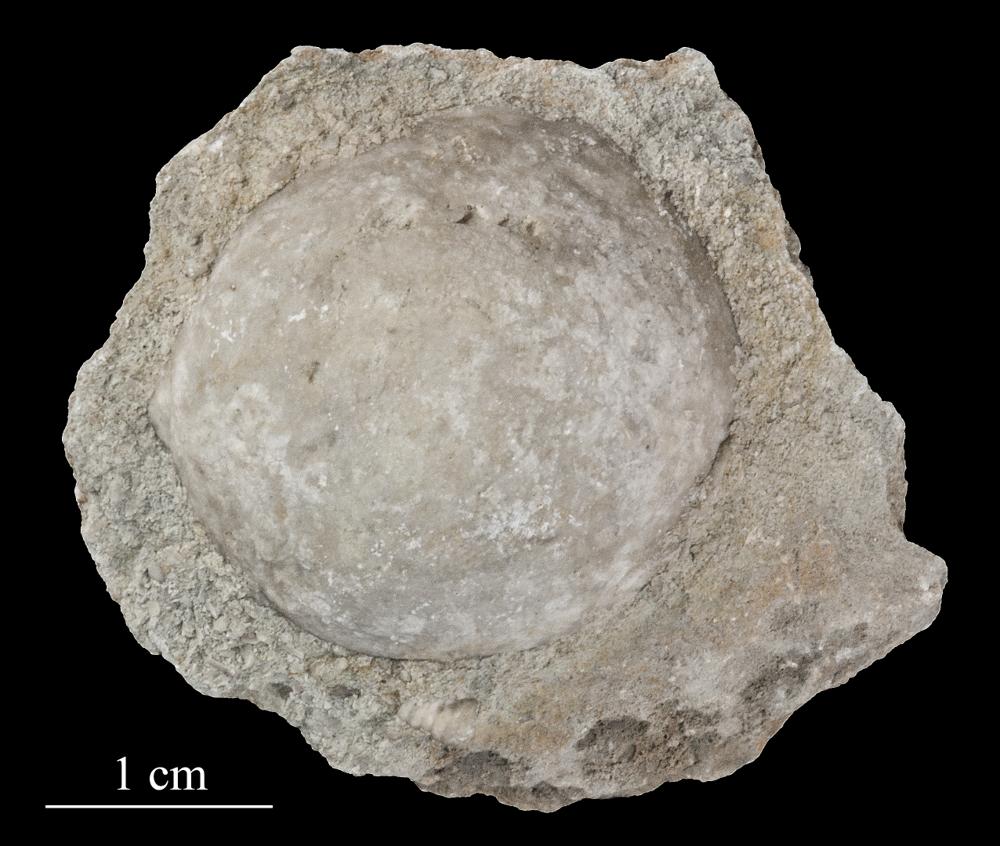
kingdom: Animalia
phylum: Echinodermata
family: Echinosphaeritidae
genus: Echinosphaerites
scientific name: Echinosphaerites Echinus aurantium
